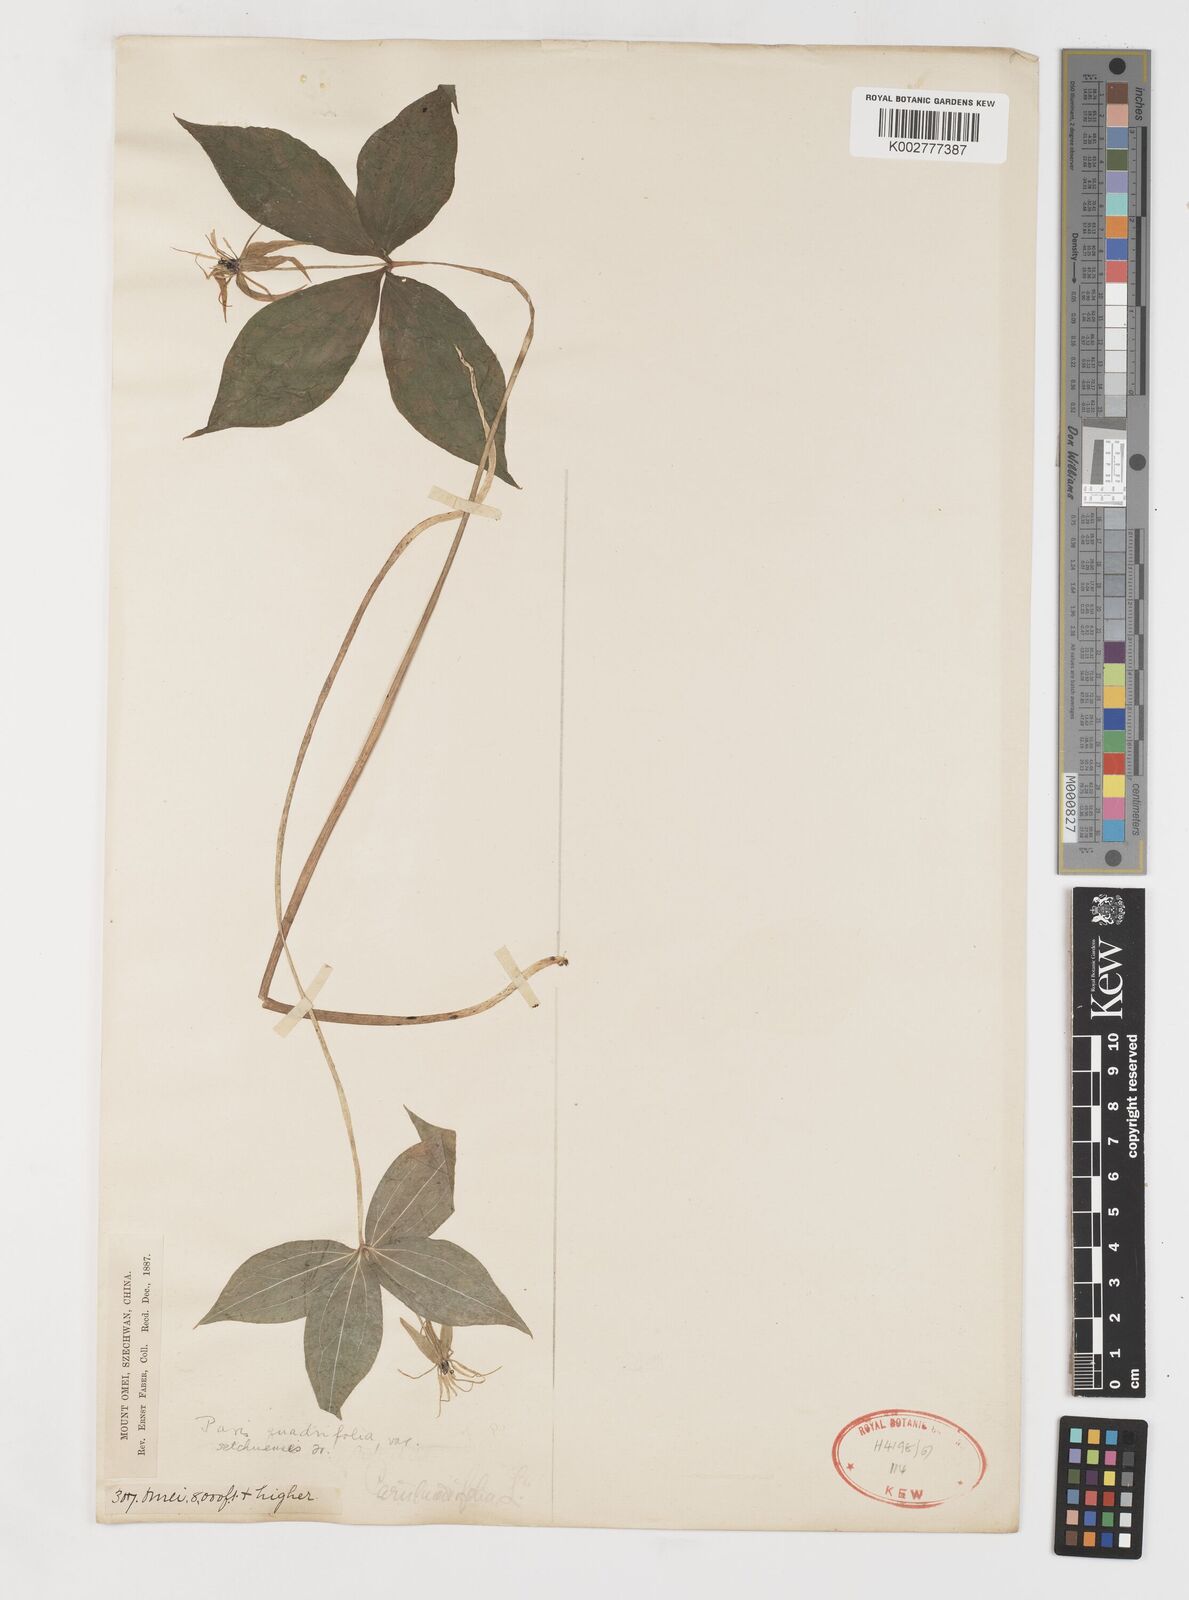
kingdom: Plantae
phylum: Tracheophyta
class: Liliopsida
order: Liliales
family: Melanthiaceae
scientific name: Melanthiaceae
